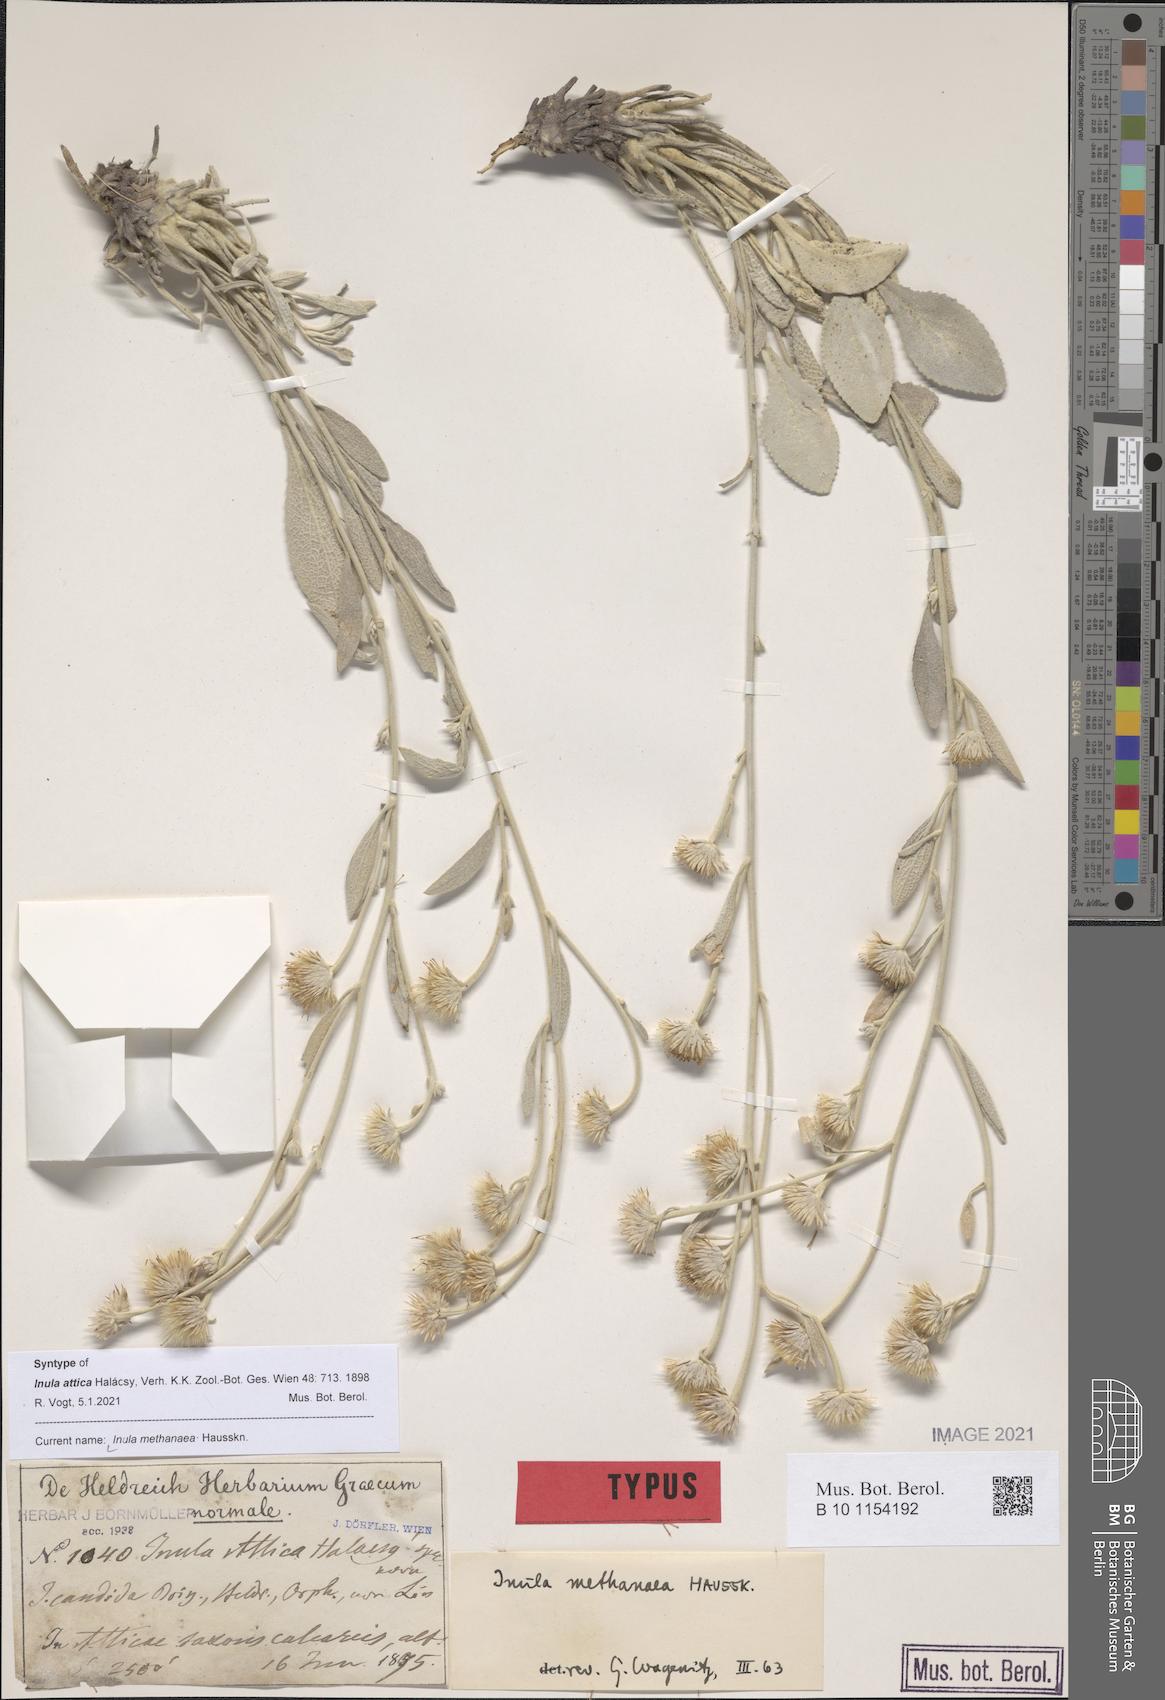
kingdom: Plantae
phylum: Tracheophyta
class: Magnoliopsida
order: Asterales
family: Asteraceae
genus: Pentanema
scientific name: Pentanema verbascifolium
